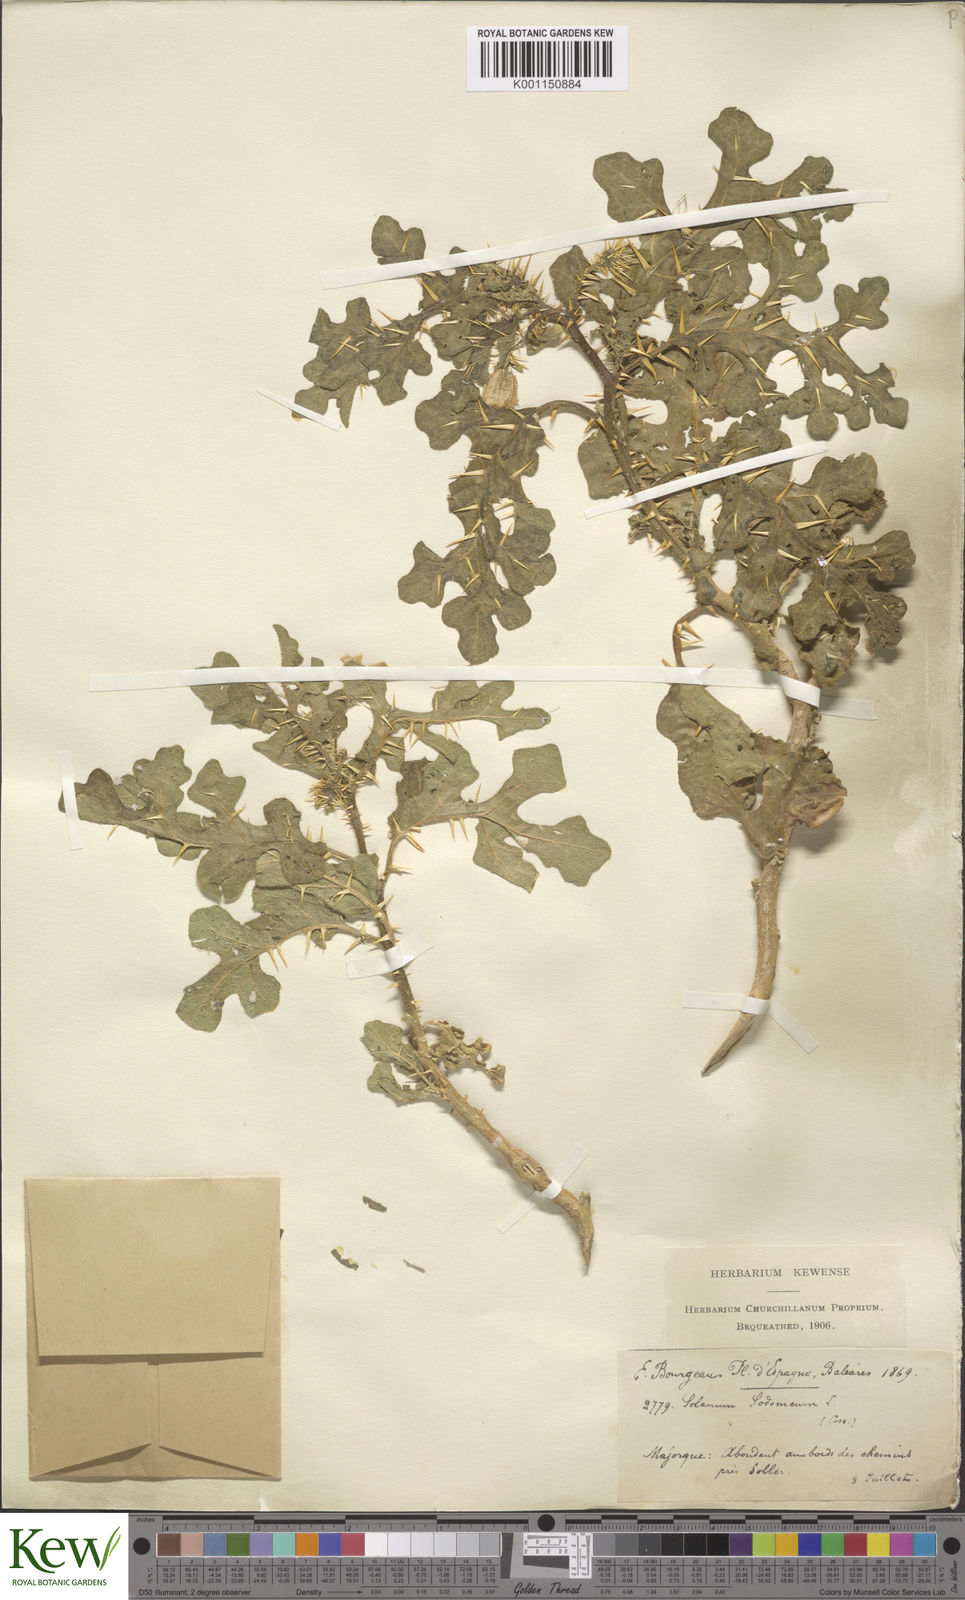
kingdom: Plantae
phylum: Tracheophyta
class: Magnoliopsida
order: Solanales
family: Solanaceae
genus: Solanum
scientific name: Solanum anguivi
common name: Forest bitterberry
